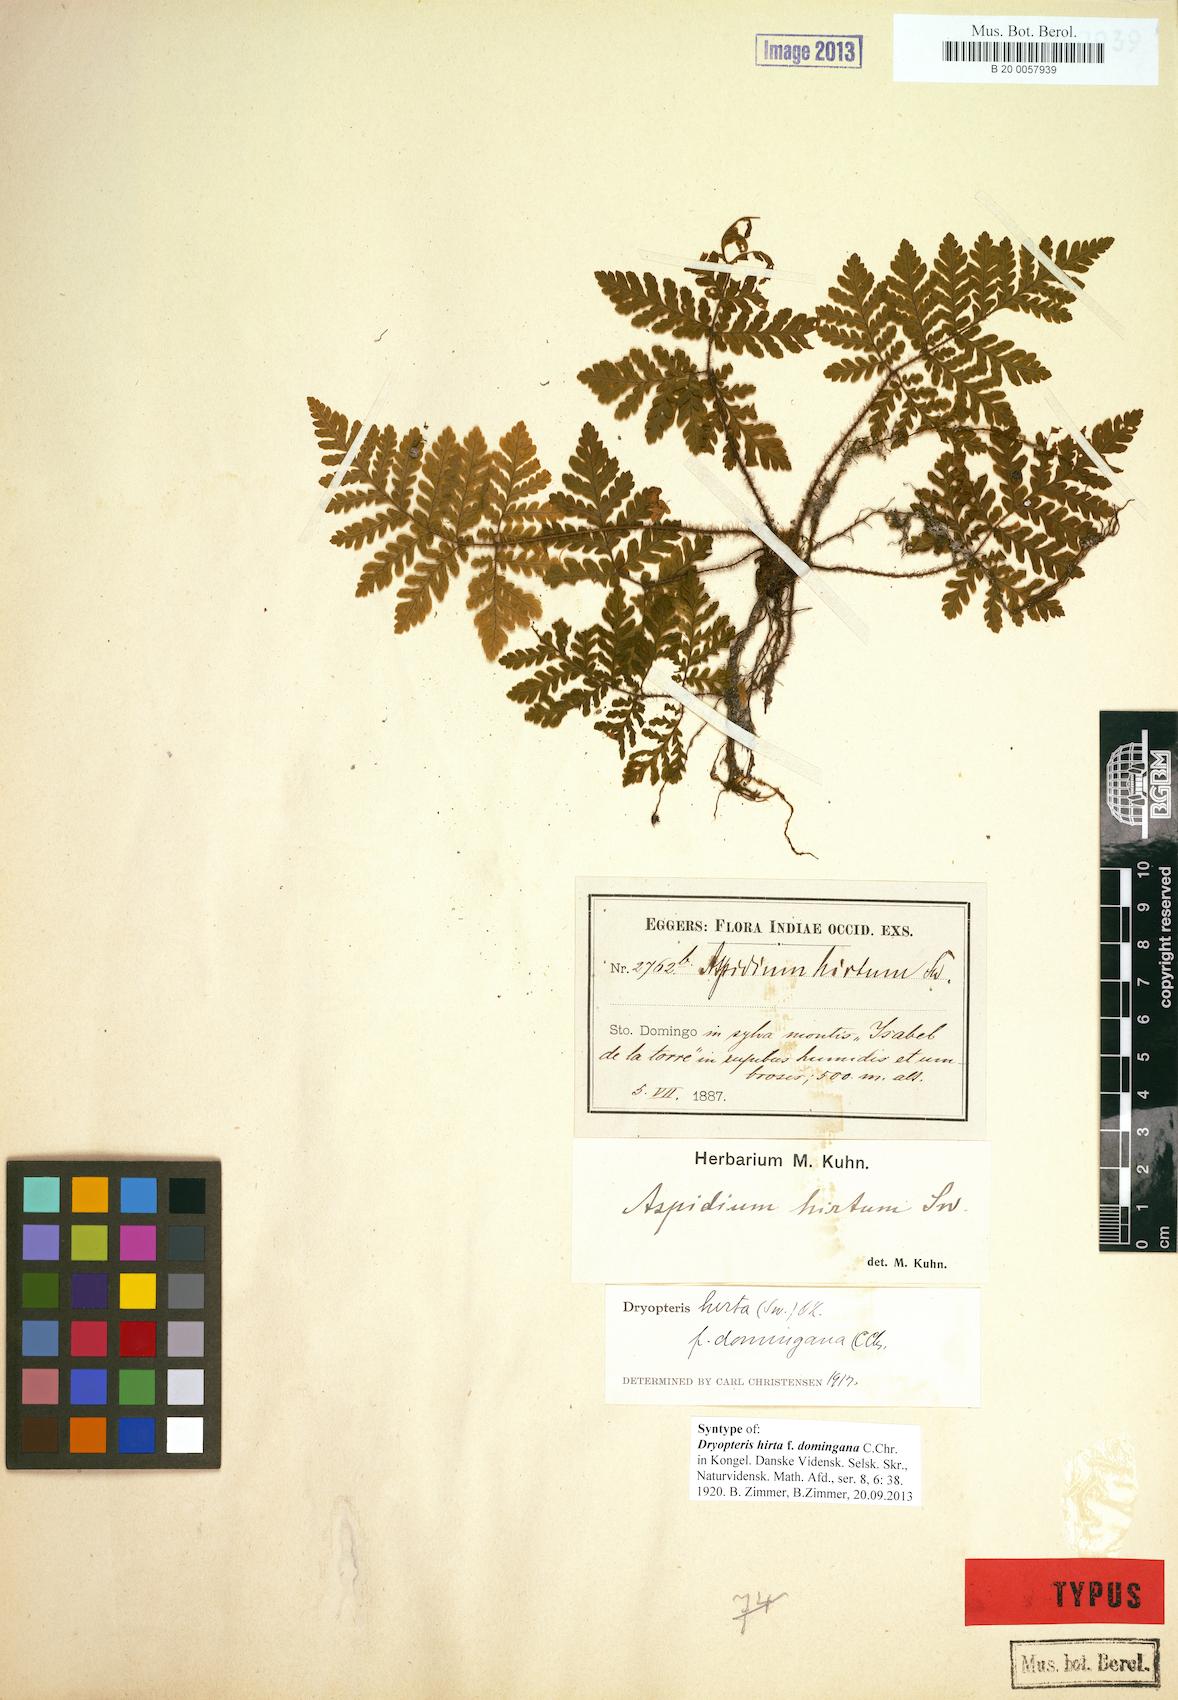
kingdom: Plantae
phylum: Tracheophyta
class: Polypodiopsida
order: Polypodiales
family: Dryopteridaceae
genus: Ctenitis
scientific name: Ctenitis hirta
